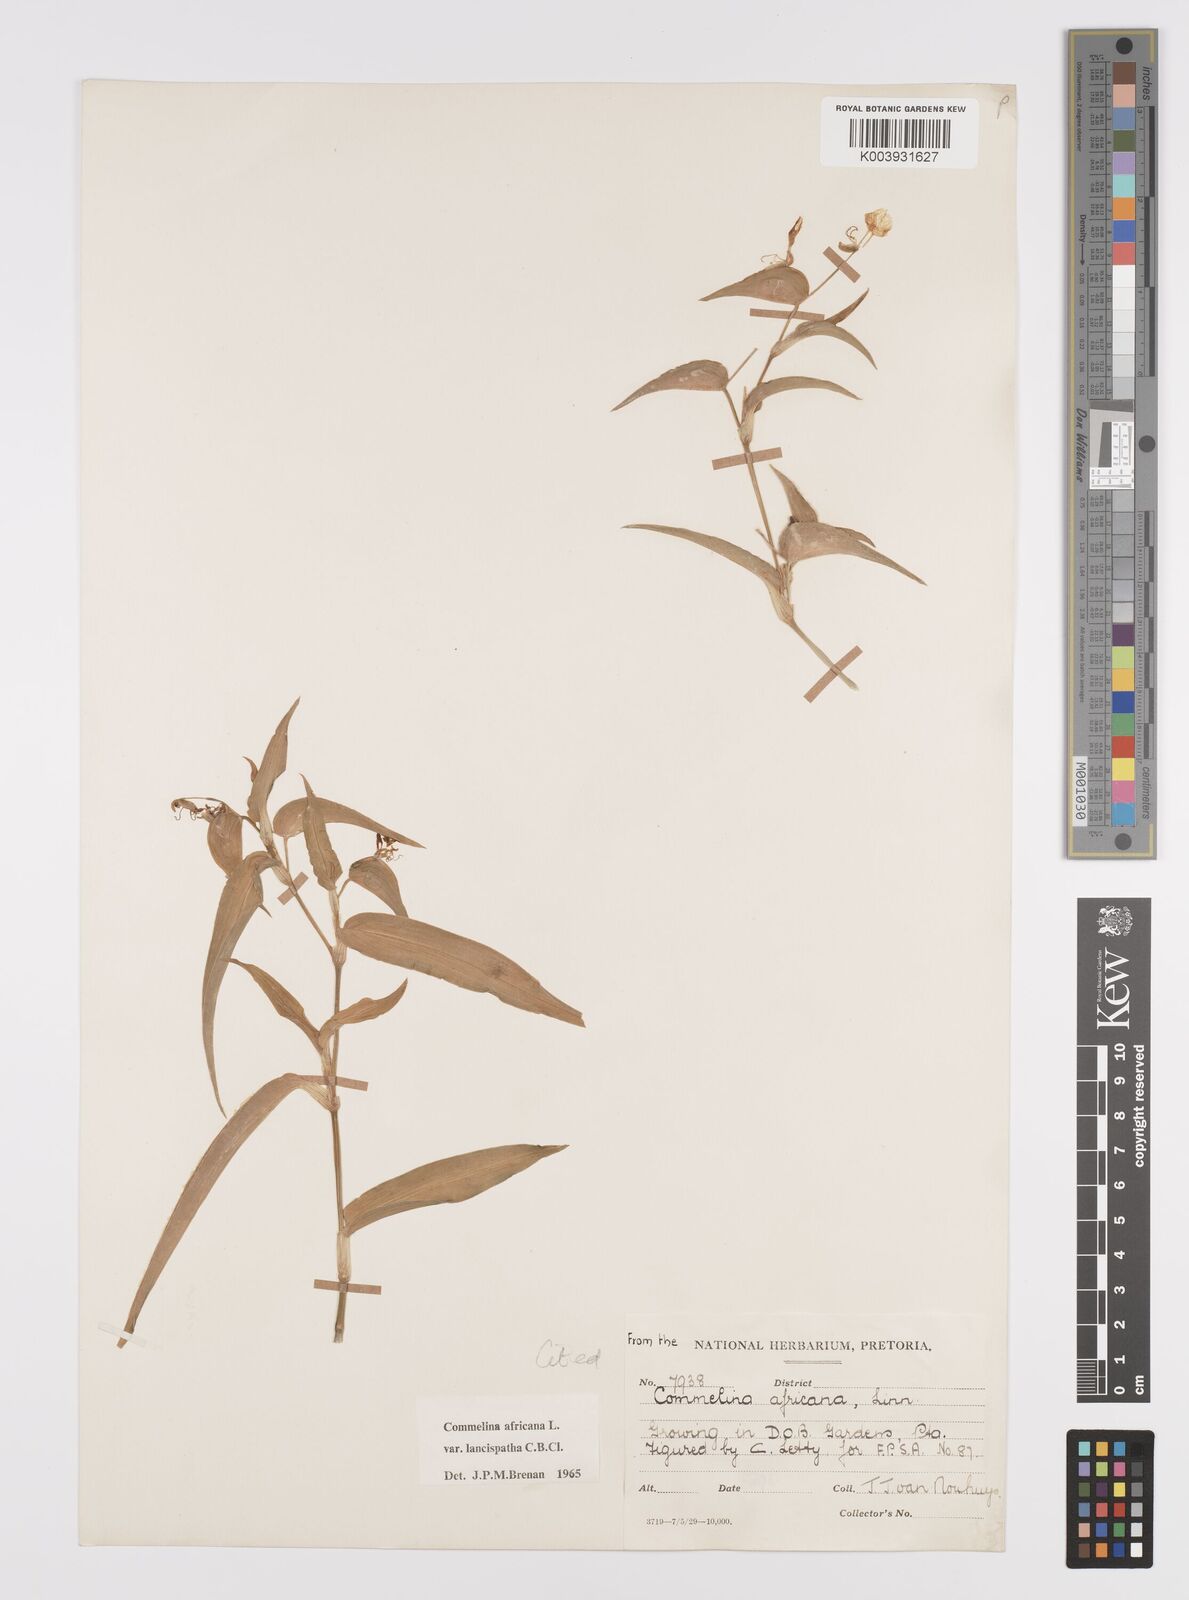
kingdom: Plantae
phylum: Tracheophyta
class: Liliopsida
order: Commelinales
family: Commelinaceae
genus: Commelina
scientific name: Commelina africana
